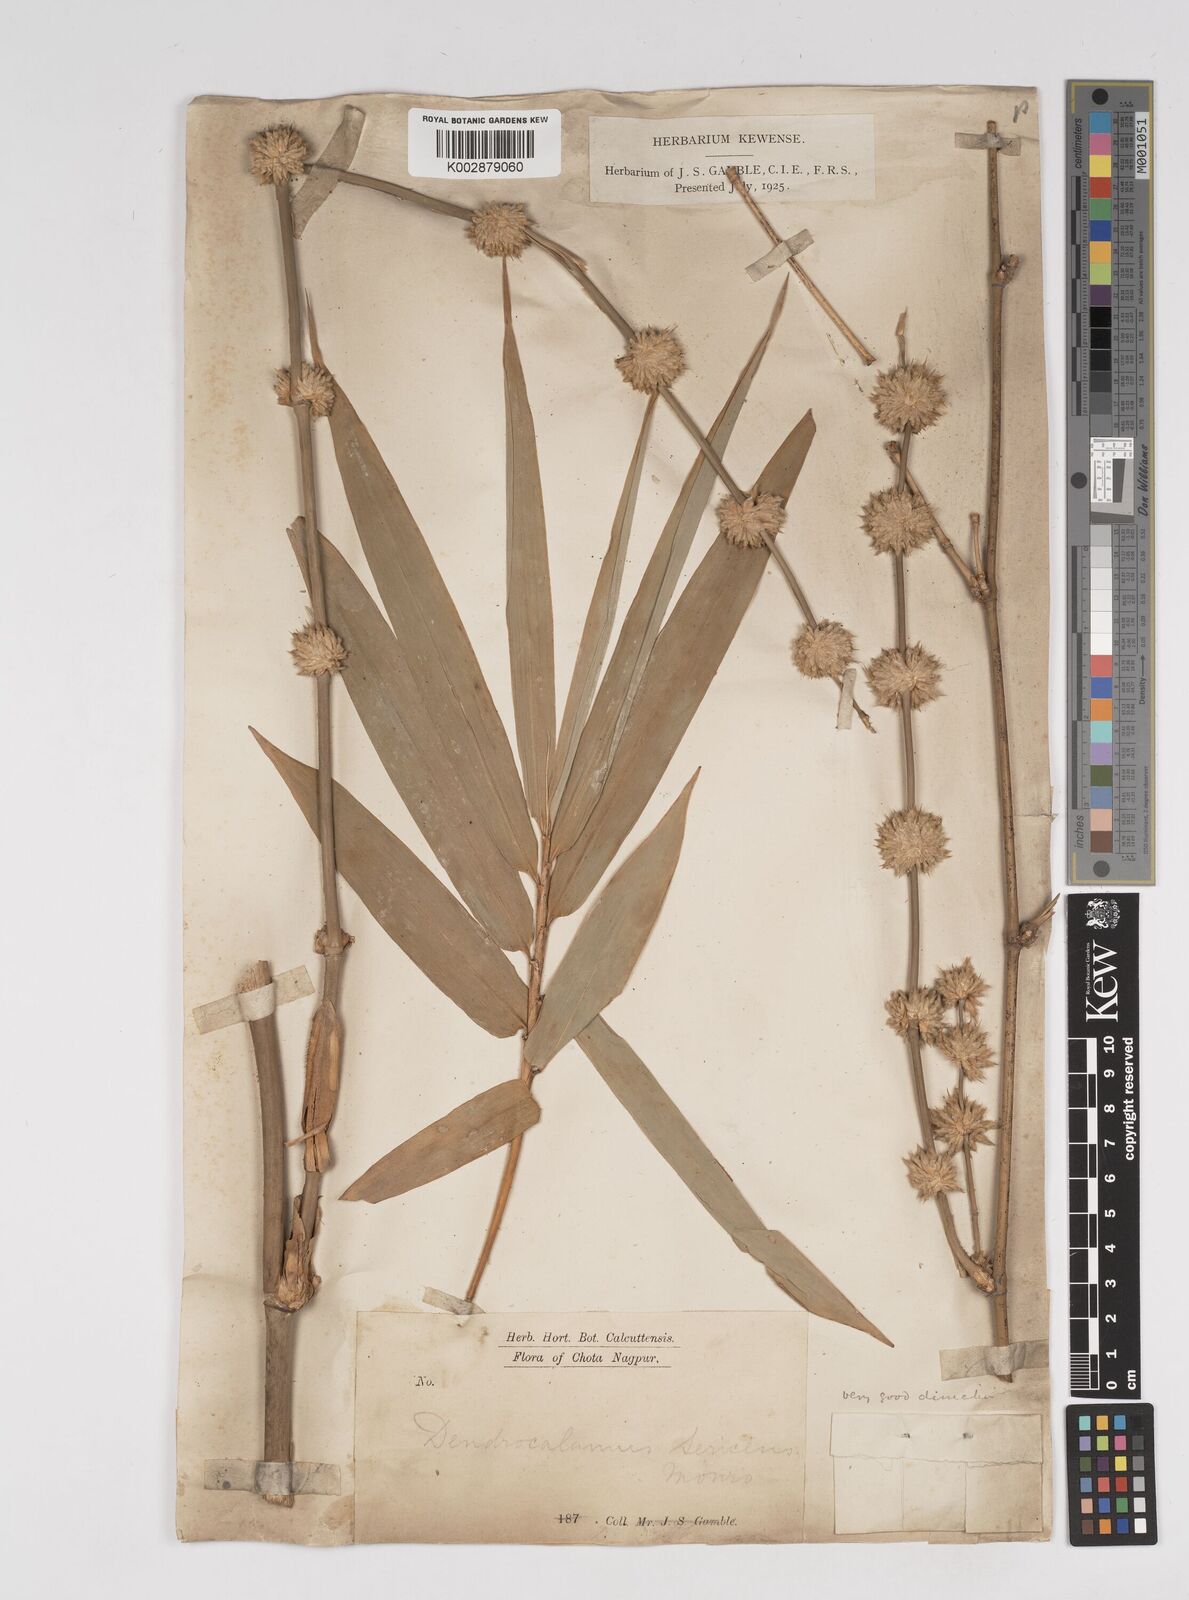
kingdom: Plantae
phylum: Tracheophyta
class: Liliopsida
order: Poales
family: Poaceae
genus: Dendrocalamus
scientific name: Dendrocalamus sericeus
